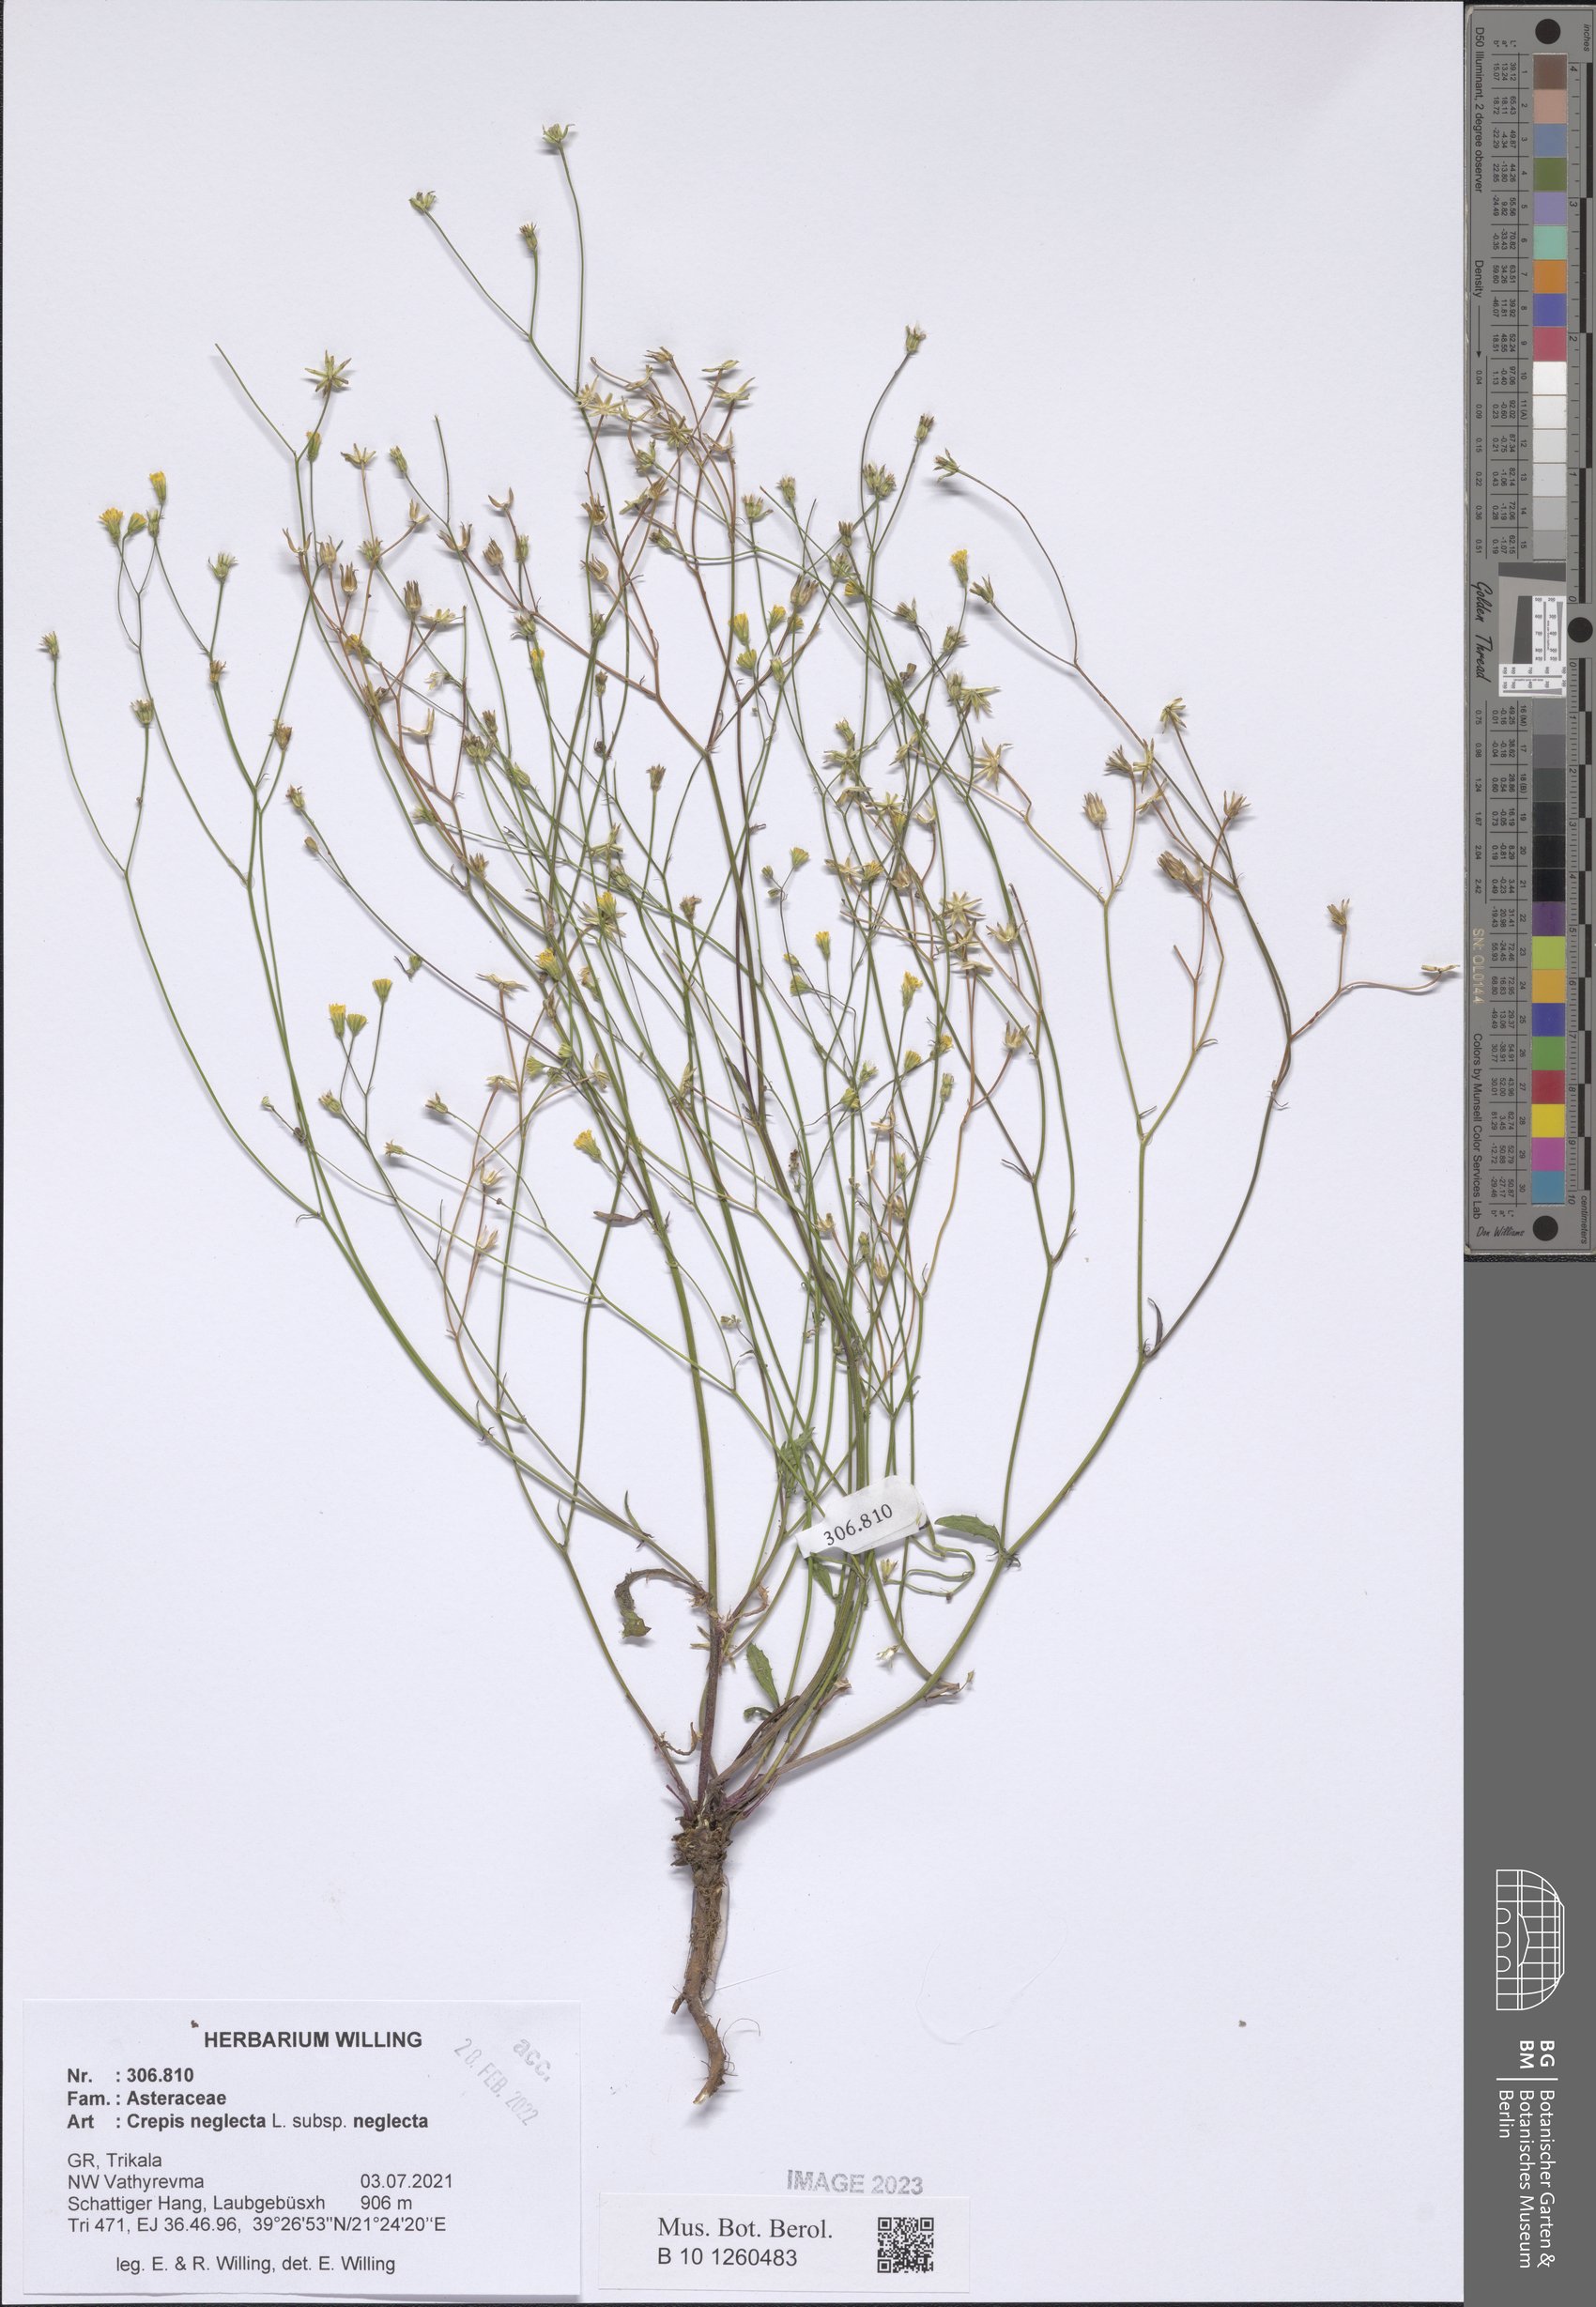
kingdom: Plantae
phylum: Tracheophyta
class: Magnoliopsida
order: Asterales
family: Asteraceae
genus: Crepis
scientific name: Crepis neglecta
